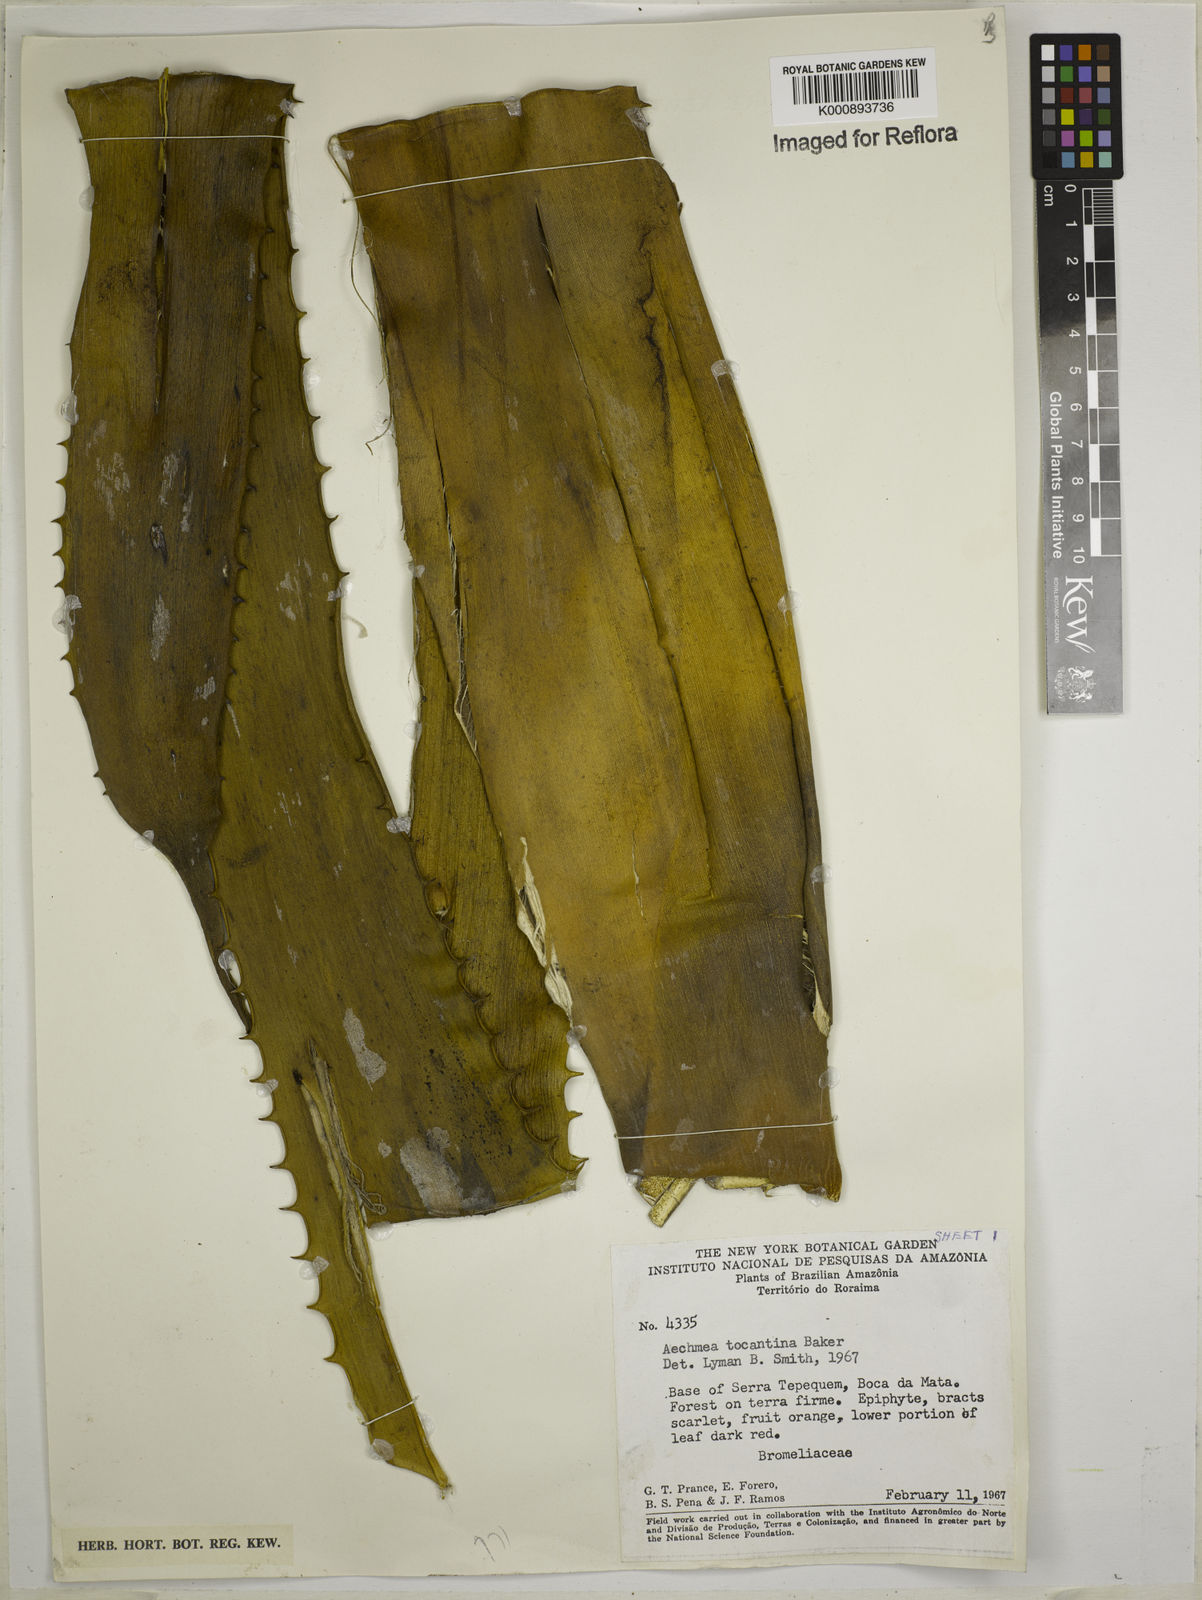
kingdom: Plantae
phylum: Tracheophyta
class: Liliopsida
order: Poales
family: Bromeliaceae
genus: Aechmea
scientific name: Aechmea tocantina
